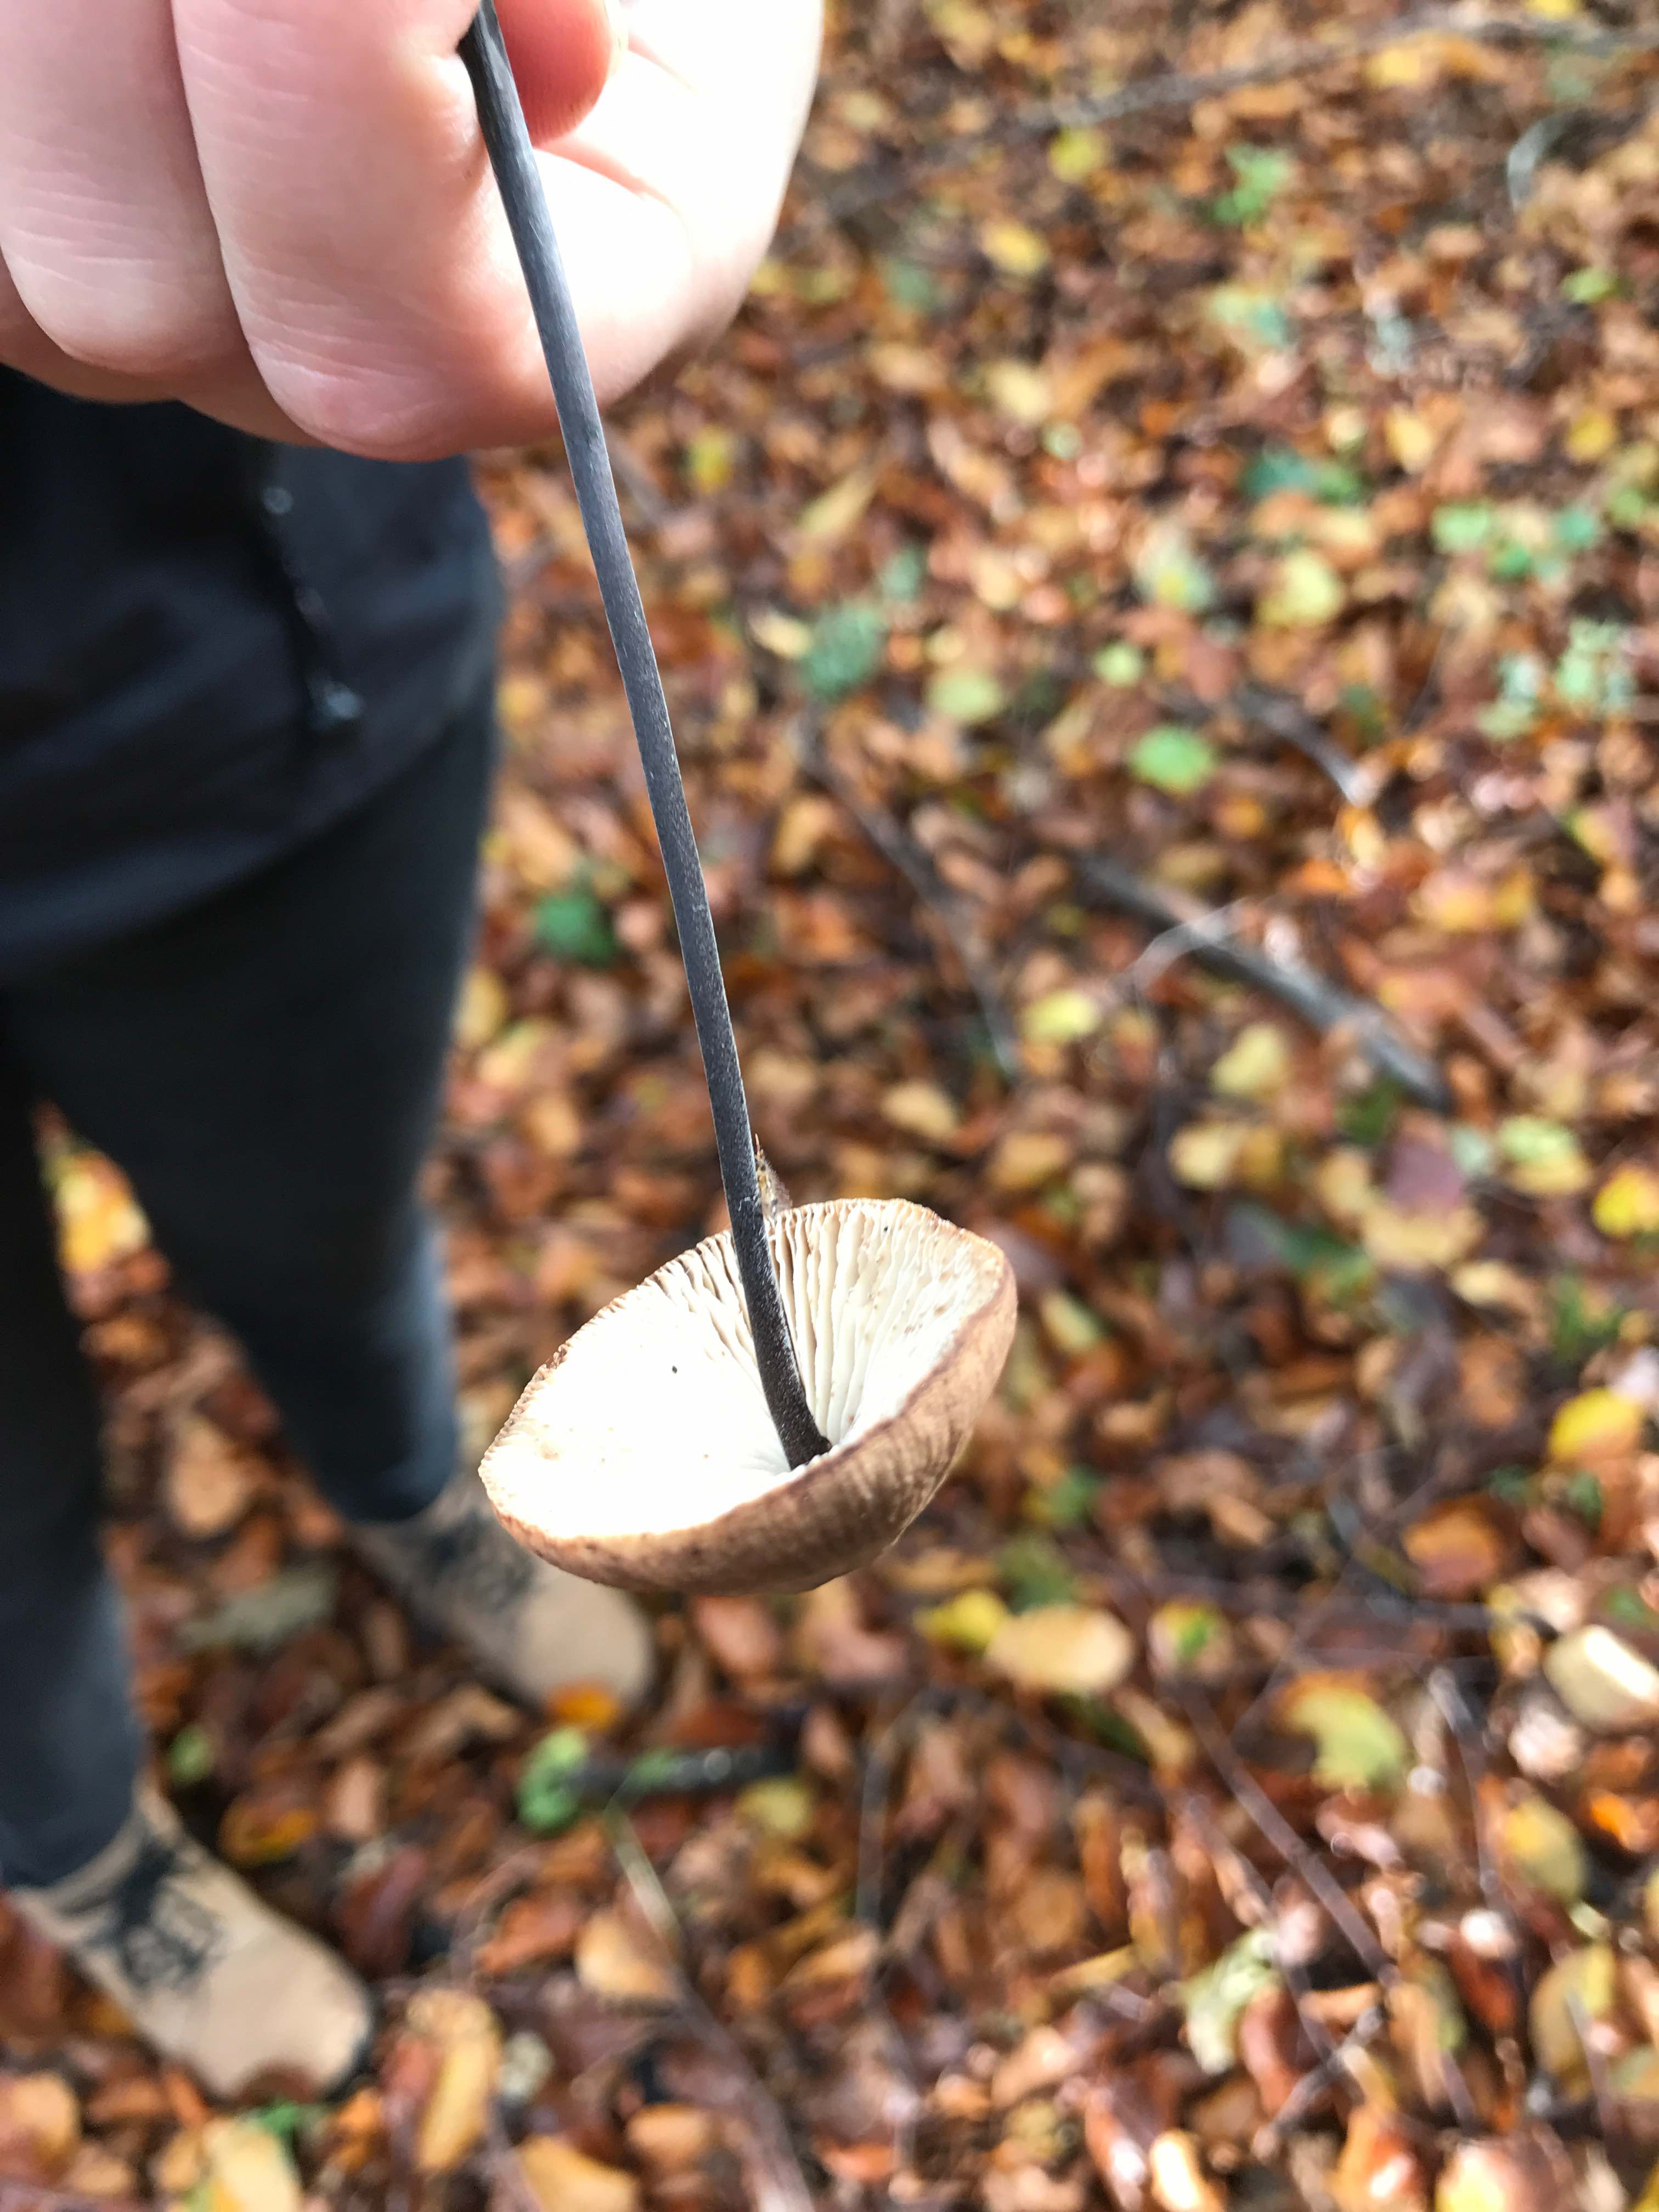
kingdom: Fungi
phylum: Basidiomycota
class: Agaricomycetes
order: Agaricales
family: Omphalotaceae
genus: Mycetinis
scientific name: Mycetinis alliaceus
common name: stor løghat
